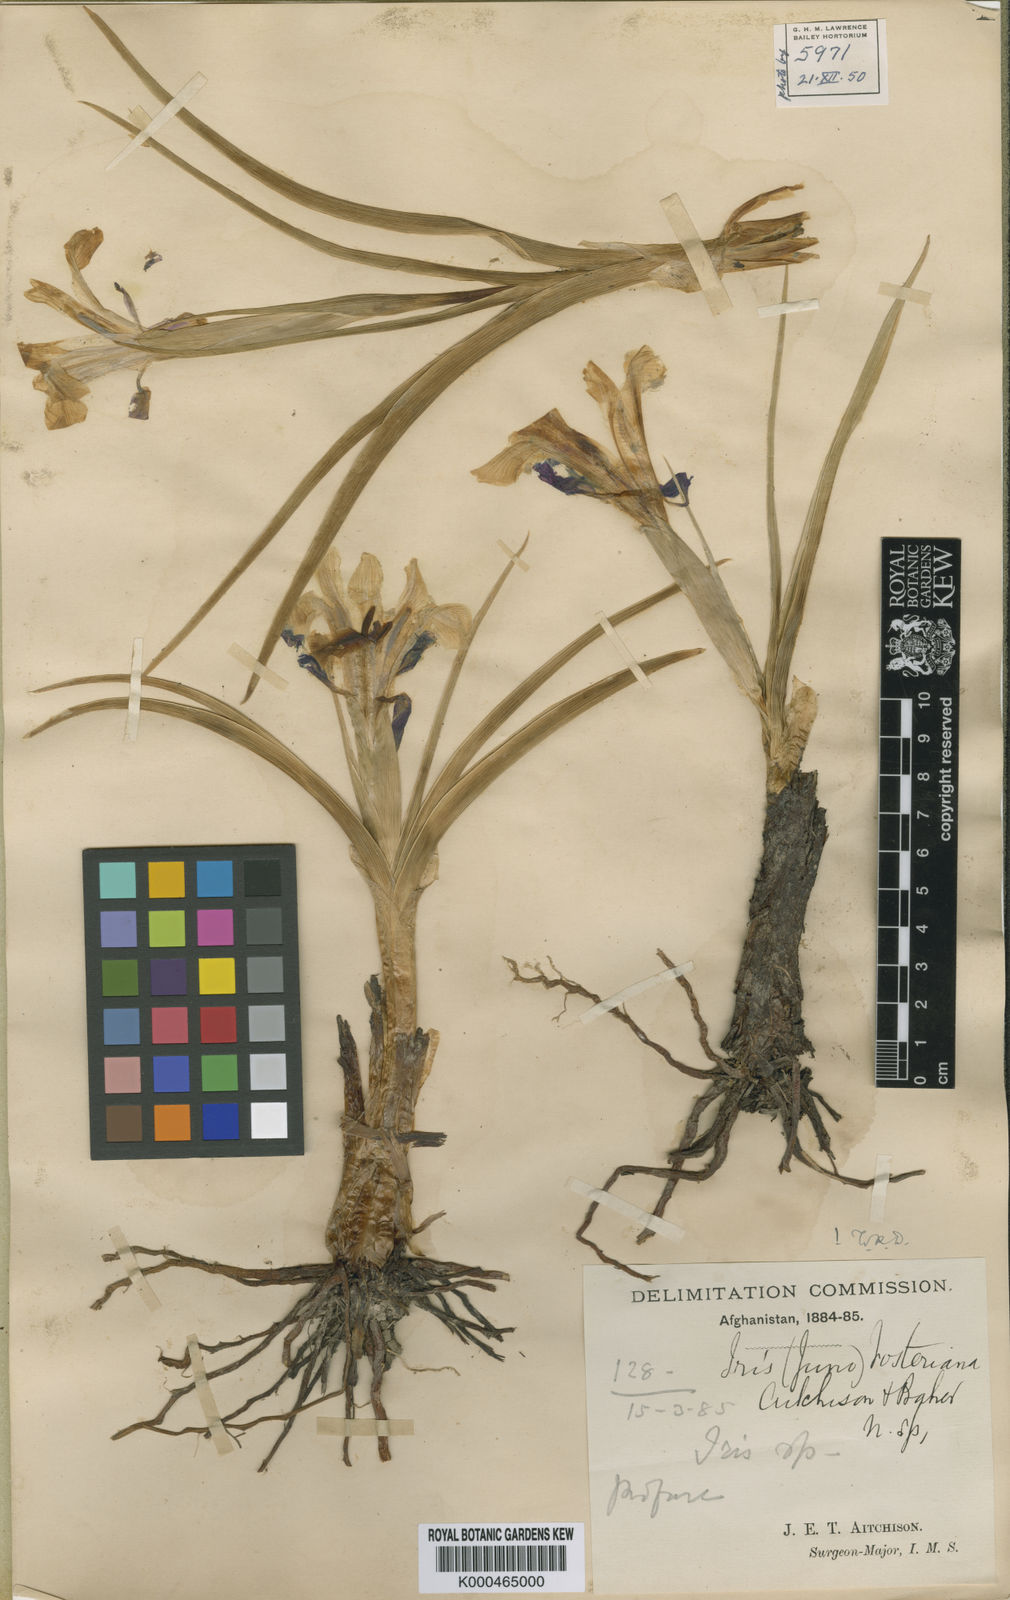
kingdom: Plantae
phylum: Tracheophyta
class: Liliopsida
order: Asparagales
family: Iridaceae
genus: Iris
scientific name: Iris rosenbachiana
